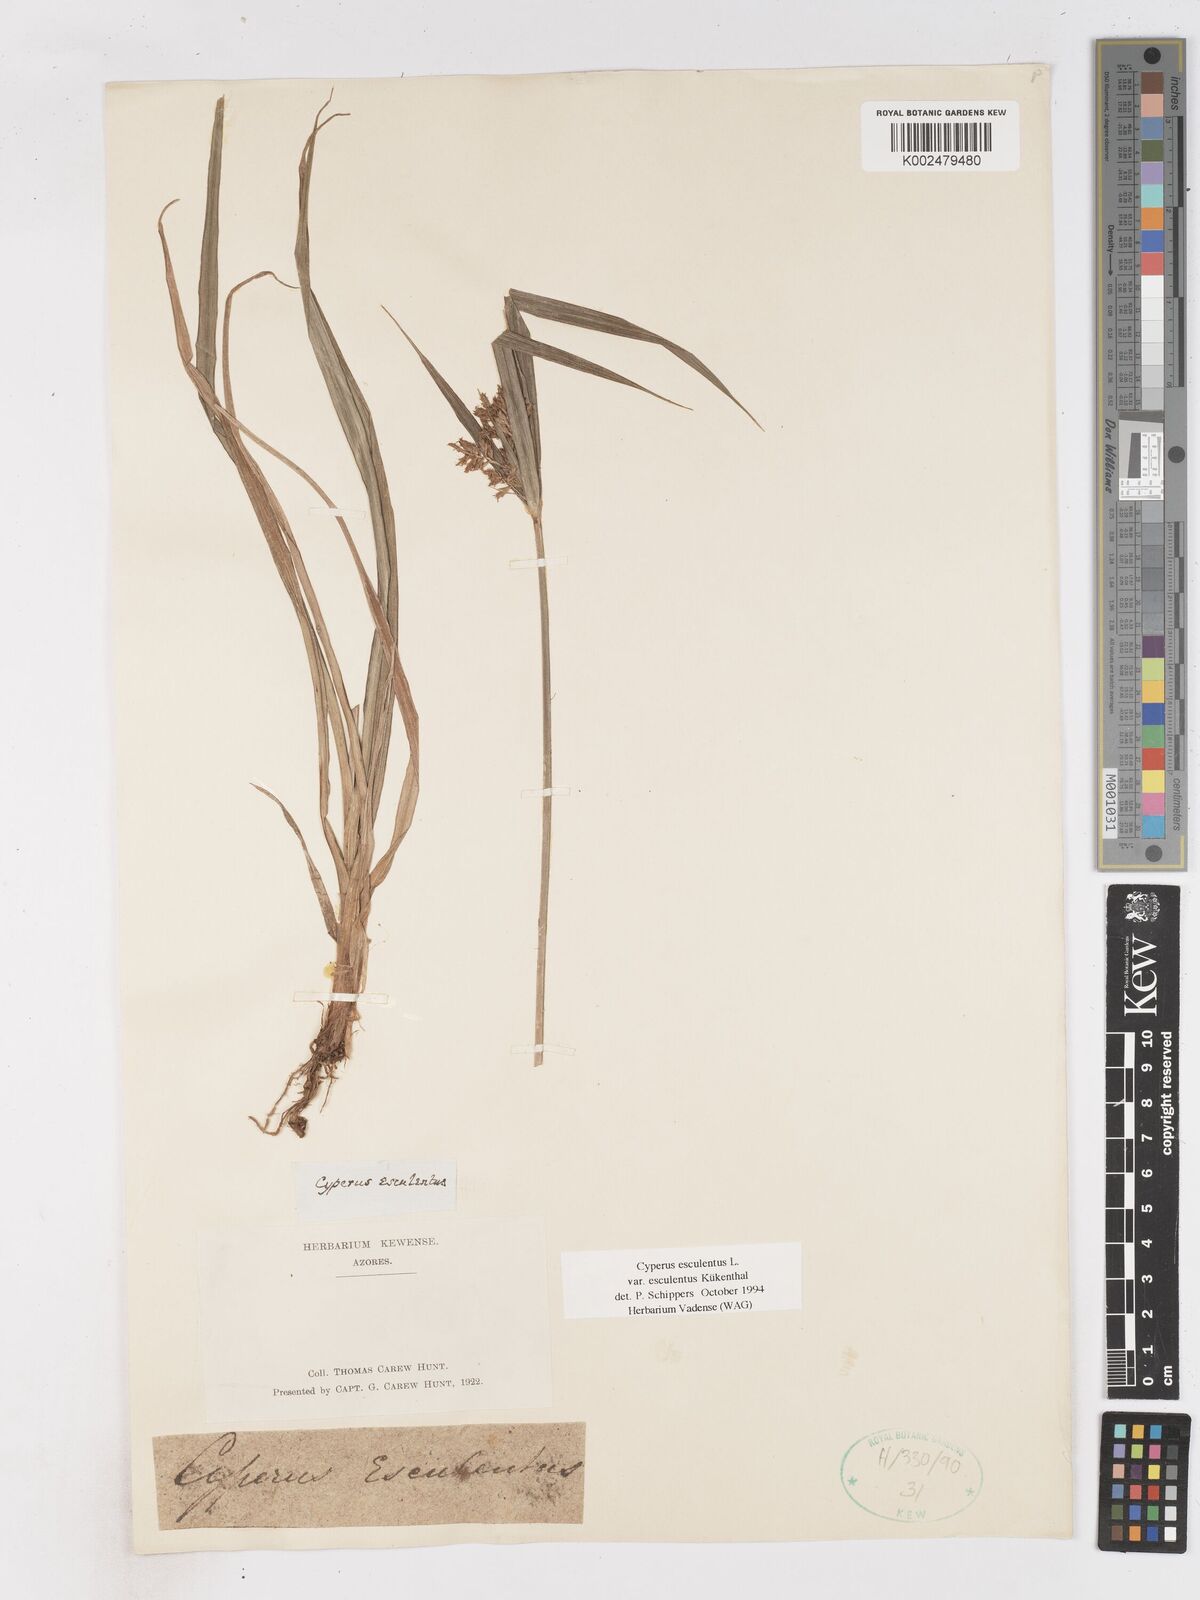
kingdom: Plantae
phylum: Tracheophyta
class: Liliopsida
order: Poales
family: Cyperaceae
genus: Cyperus
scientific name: Cyperus esculentus
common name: Yellow nutsedge
